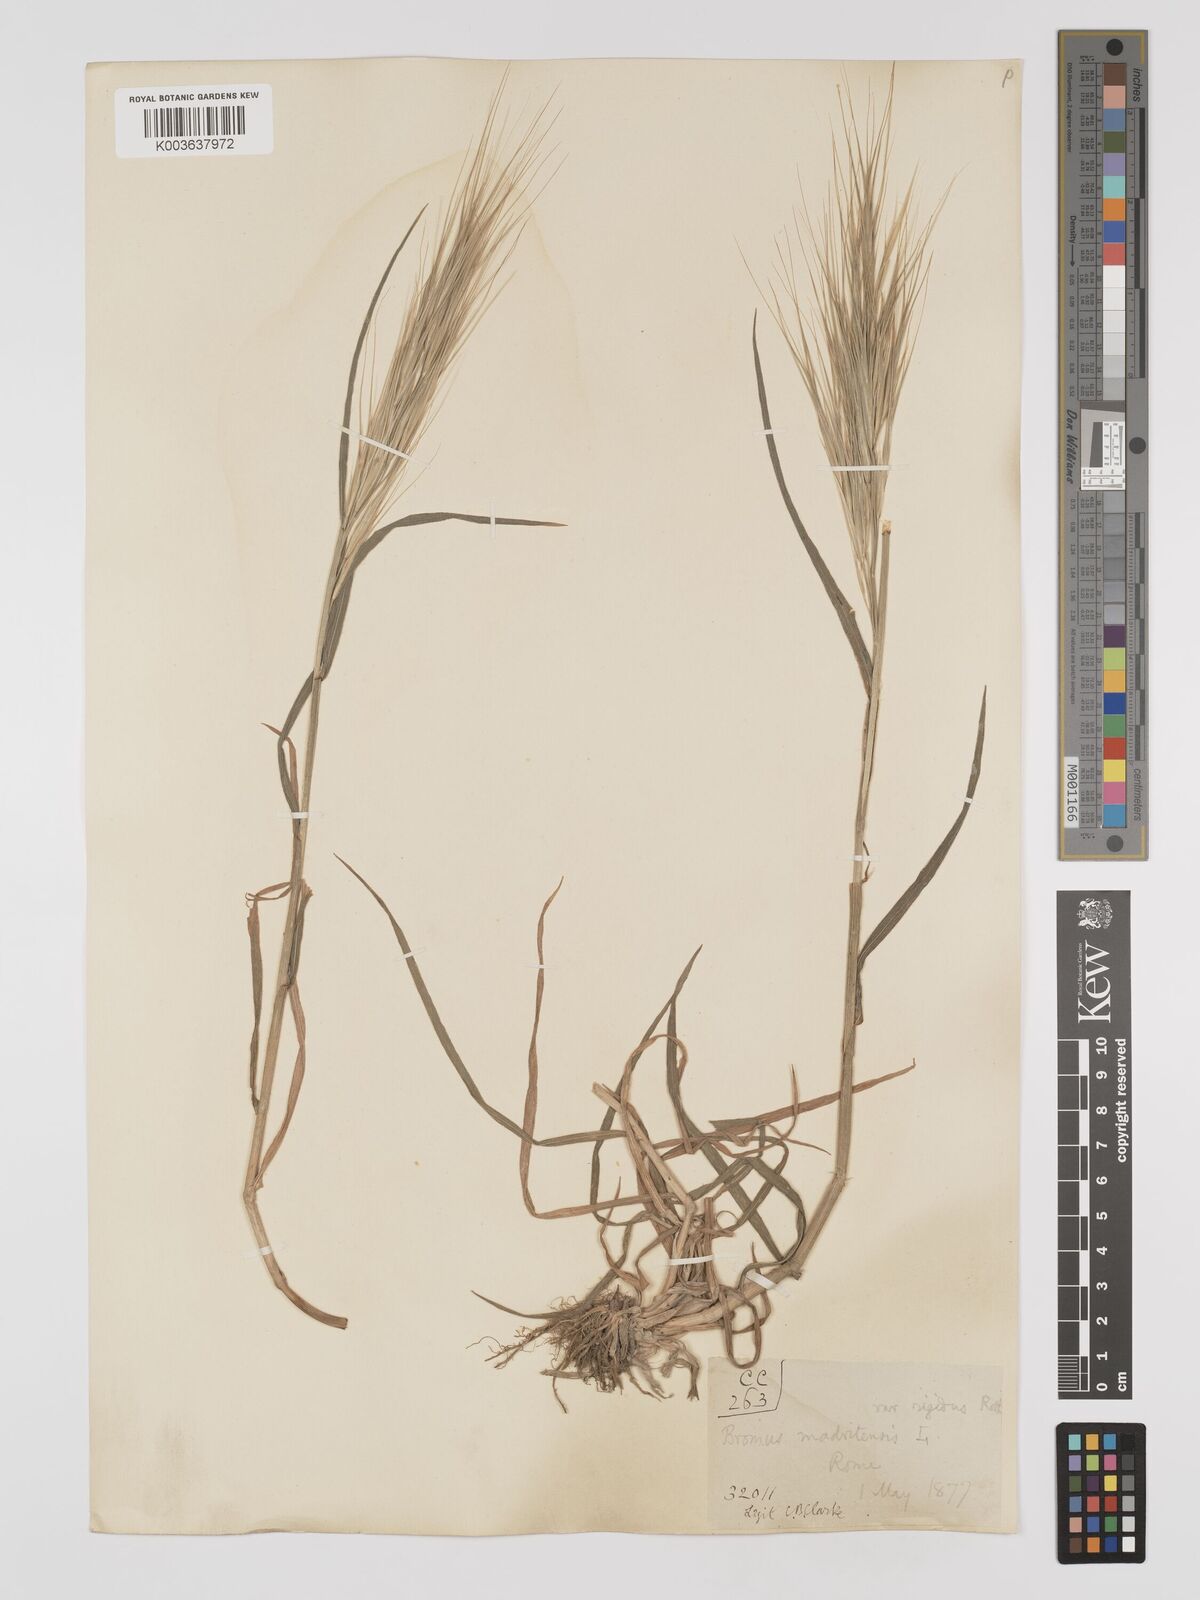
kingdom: Plantae
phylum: Tracheophyta
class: Liliopsida
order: Poales
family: Poaceae
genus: Bromus
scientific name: Bromus
